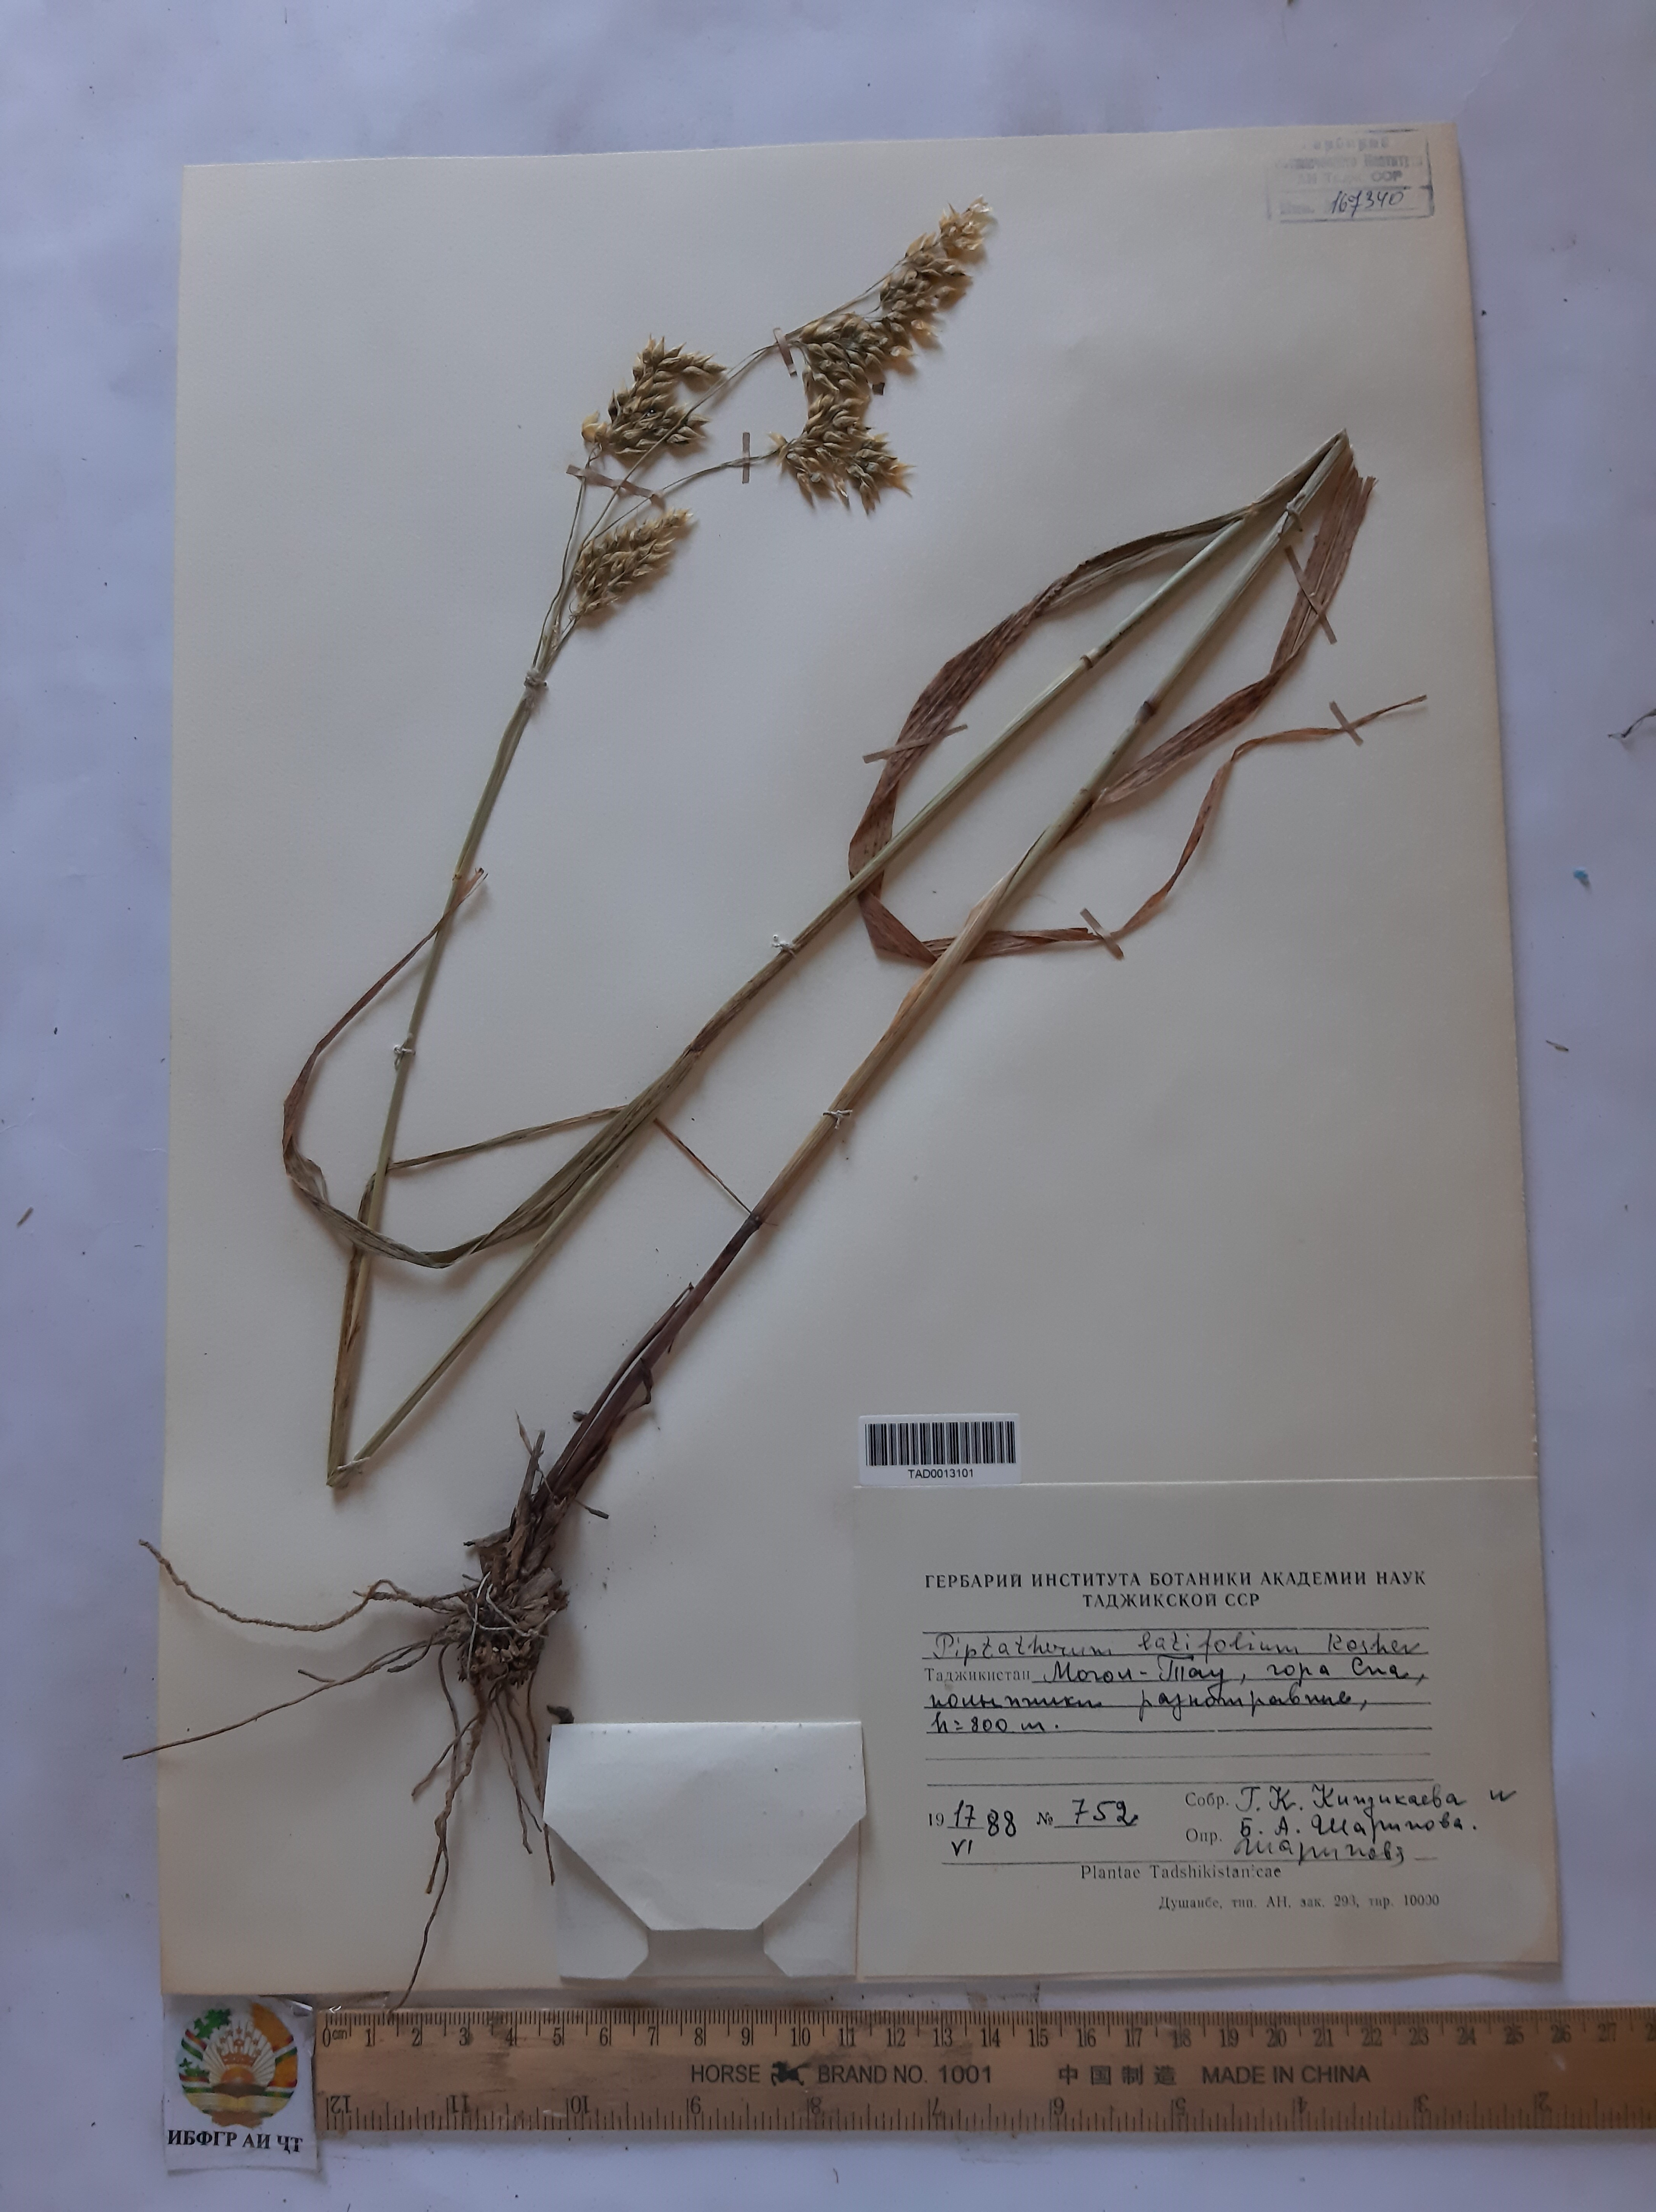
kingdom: Plantae
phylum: Tracheophyta
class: Liliopsida
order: Poales
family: Poaceae
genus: Piptatherum
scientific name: Piptatherum latifolium
